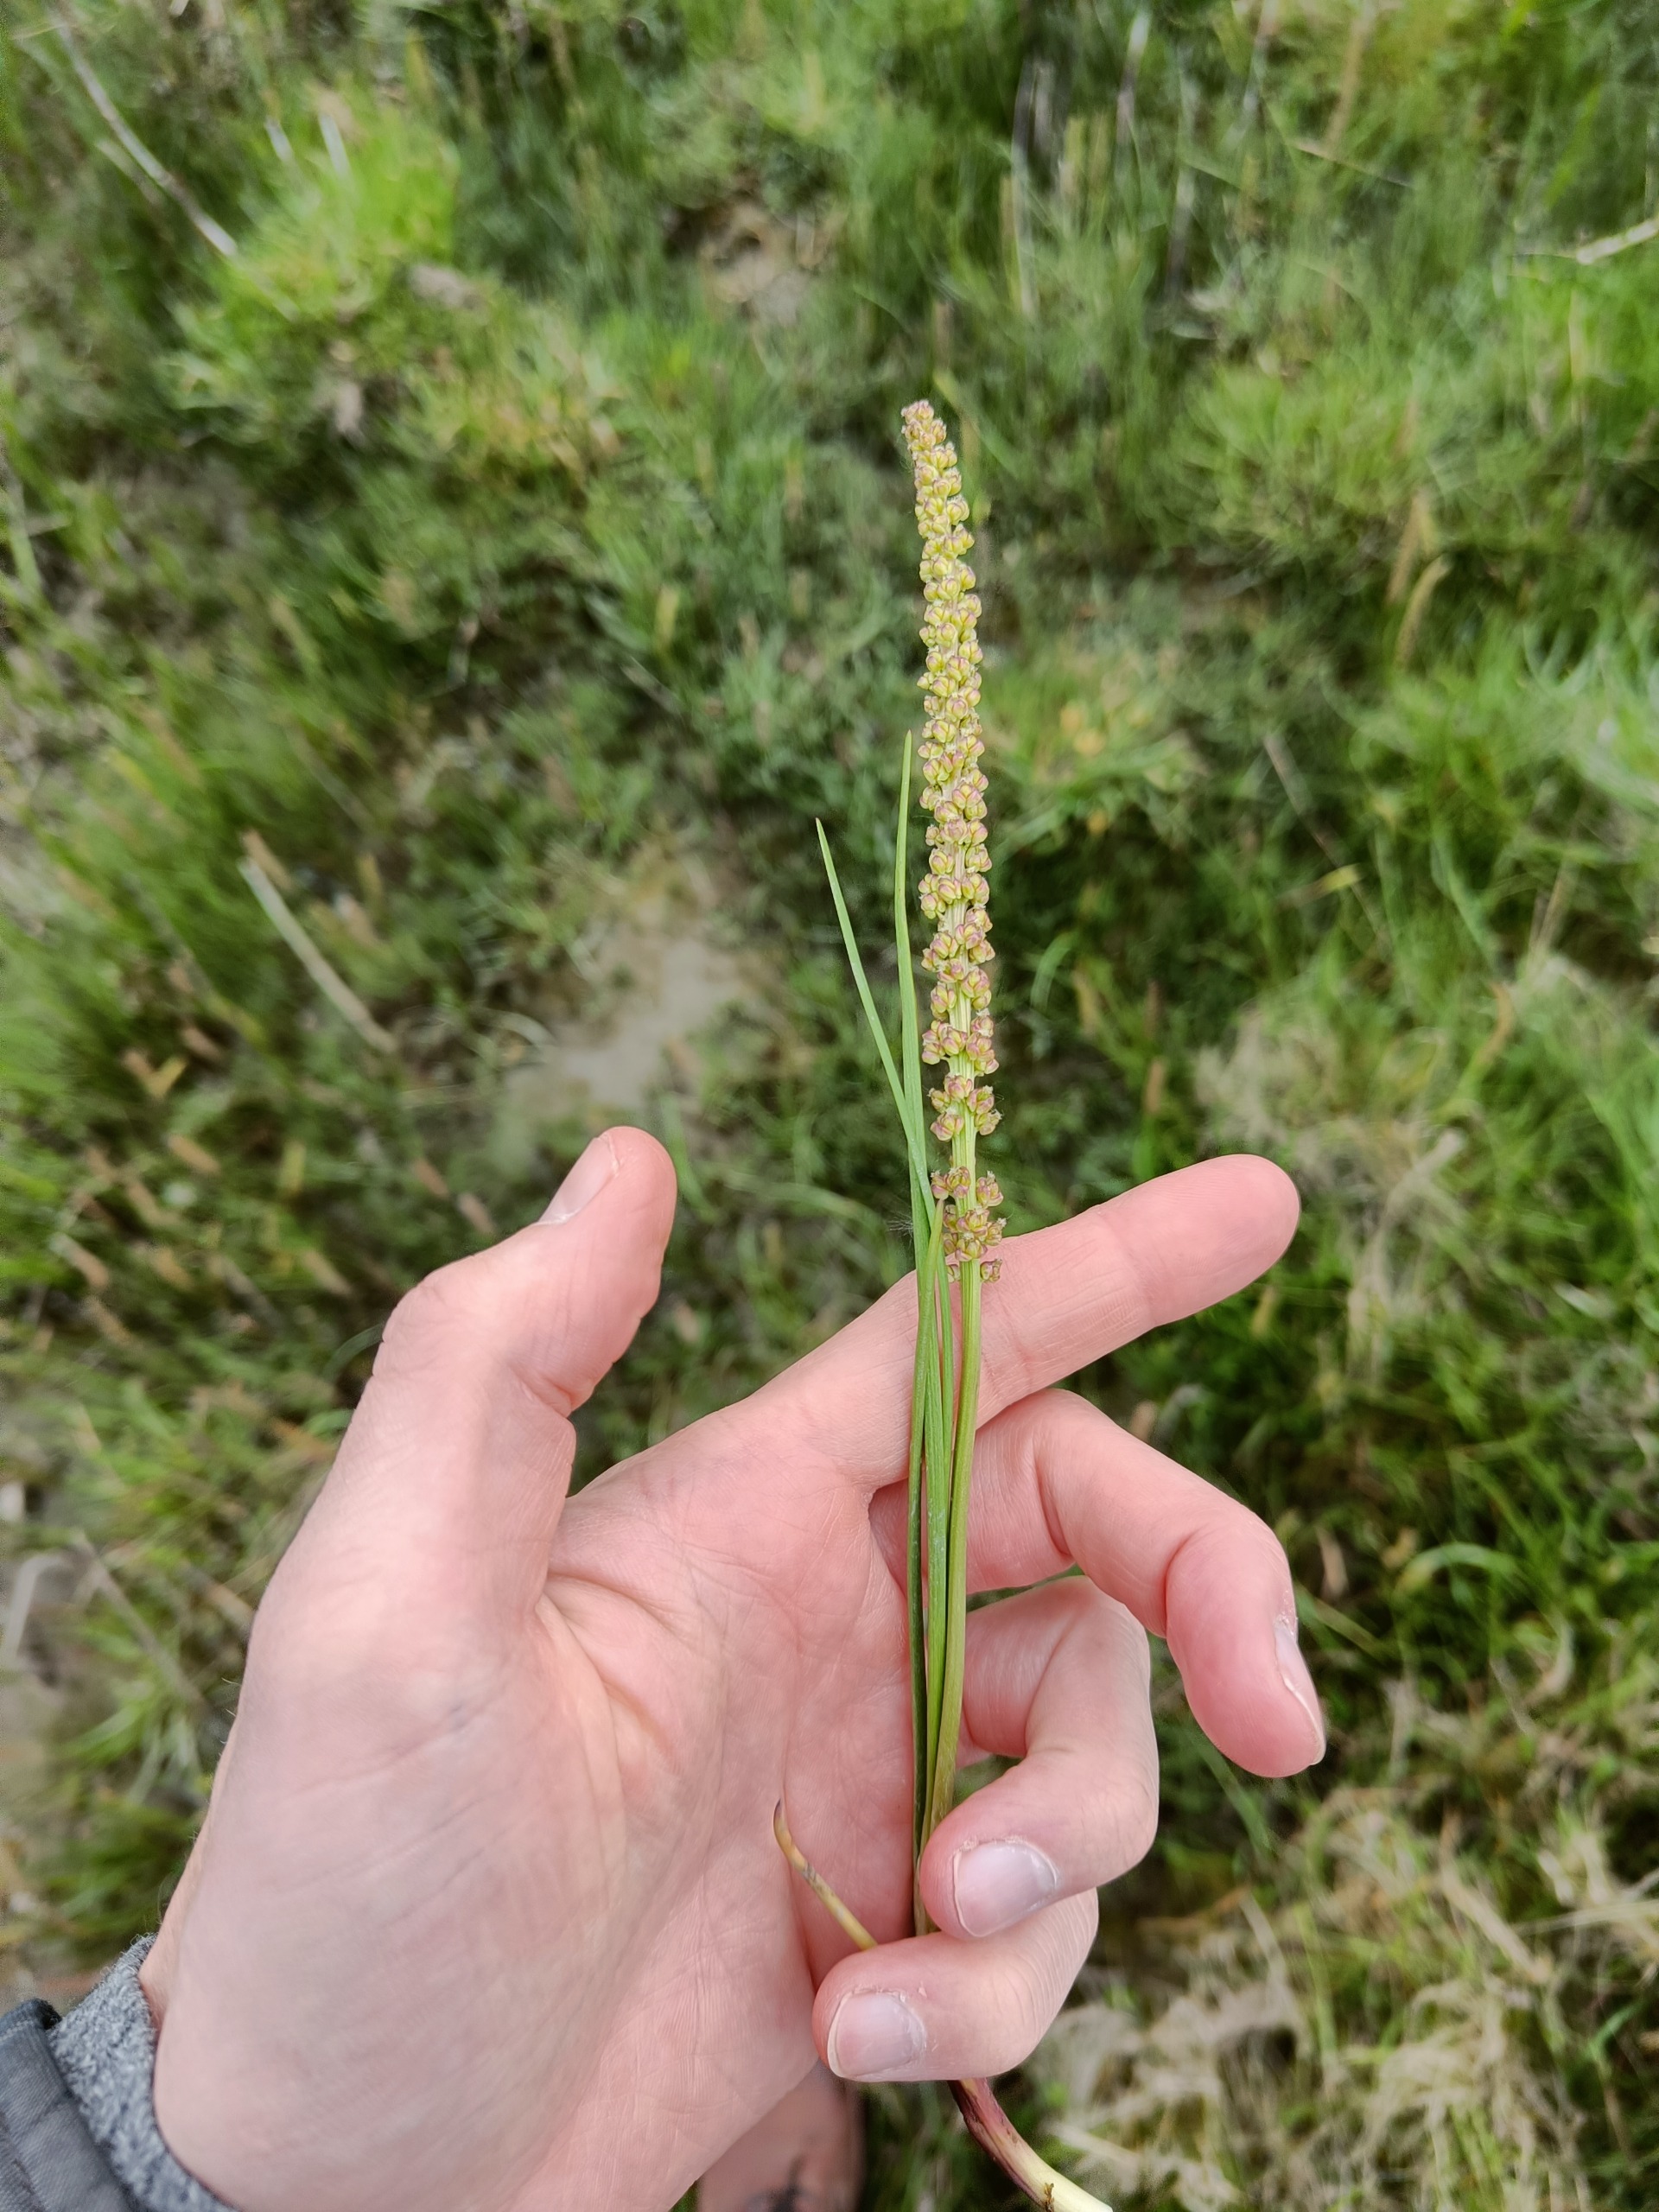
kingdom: Plantae
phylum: Tracheophyta
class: Liliopsida
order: Alismatales
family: Juncaginaceae
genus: Triglochin
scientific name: Triglochin maritima
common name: Strand-trehage
